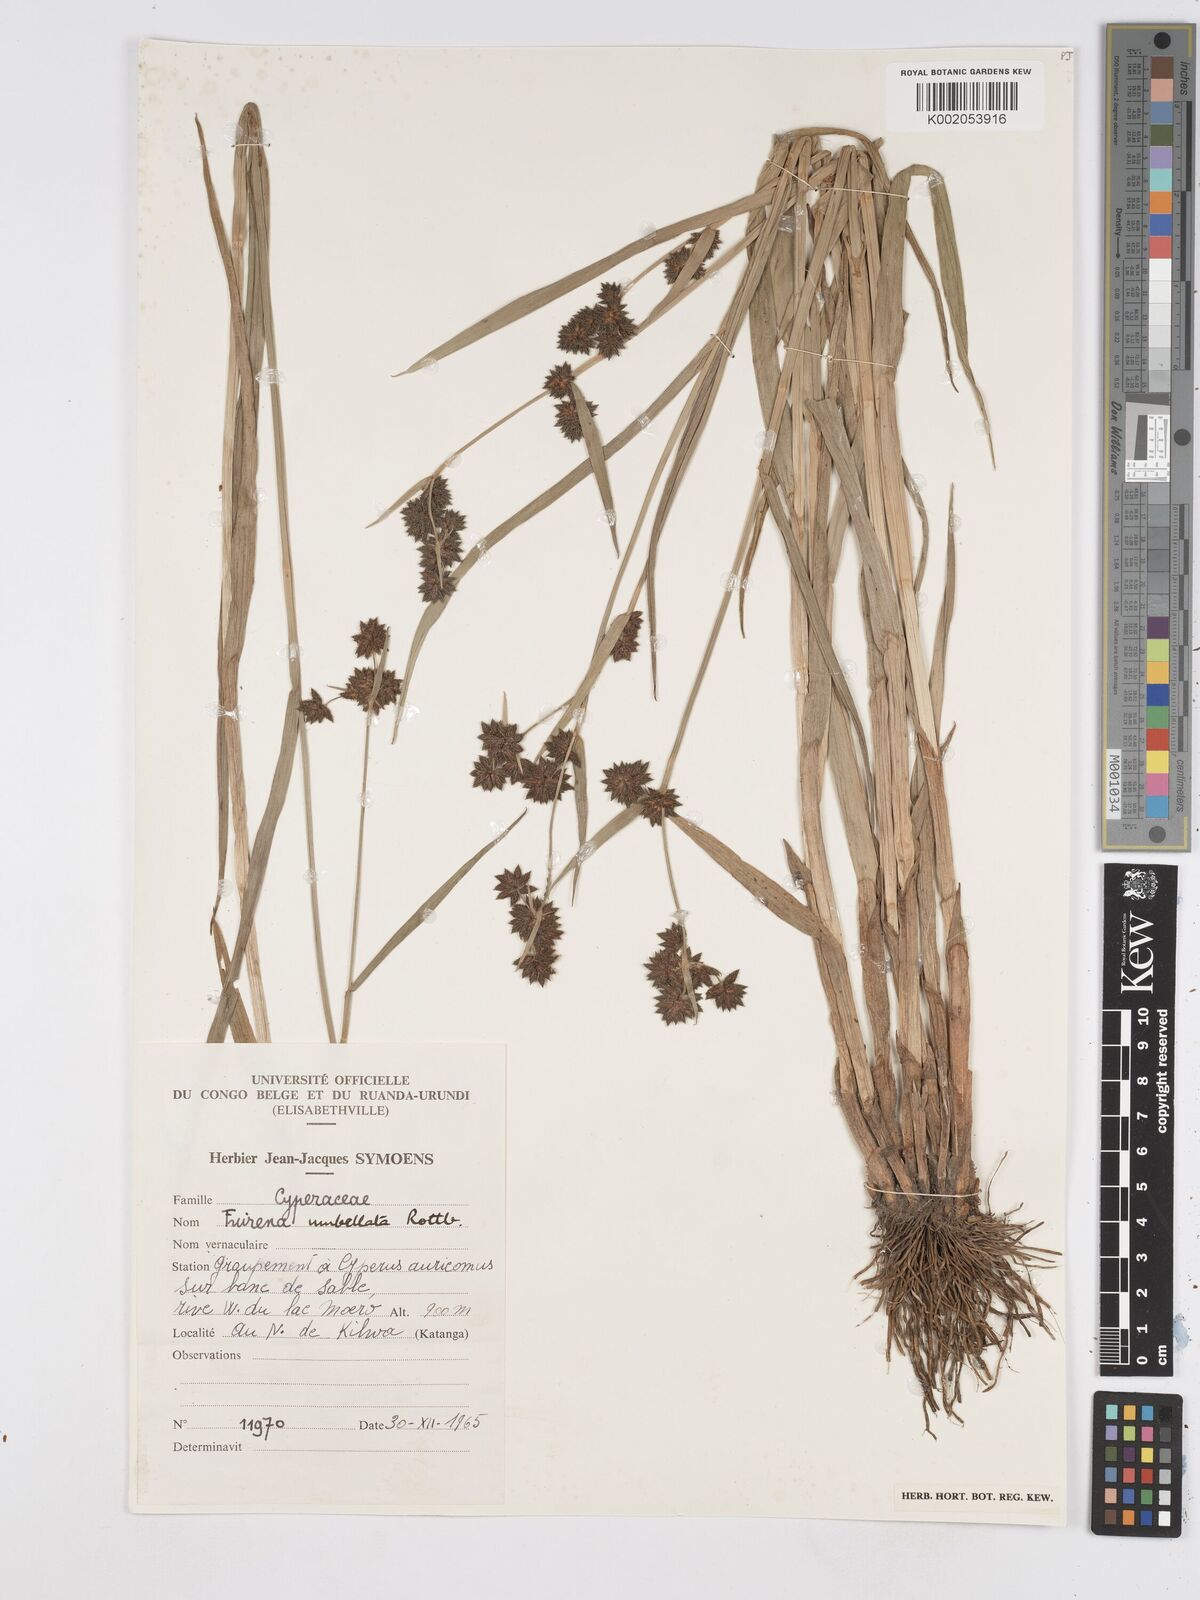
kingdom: Plantae
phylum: Tracheophyta
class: Liliopsida
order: Poales
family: Cyperaceae
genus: Fuirena
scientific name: Fuirena umbellata
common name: Yefen
